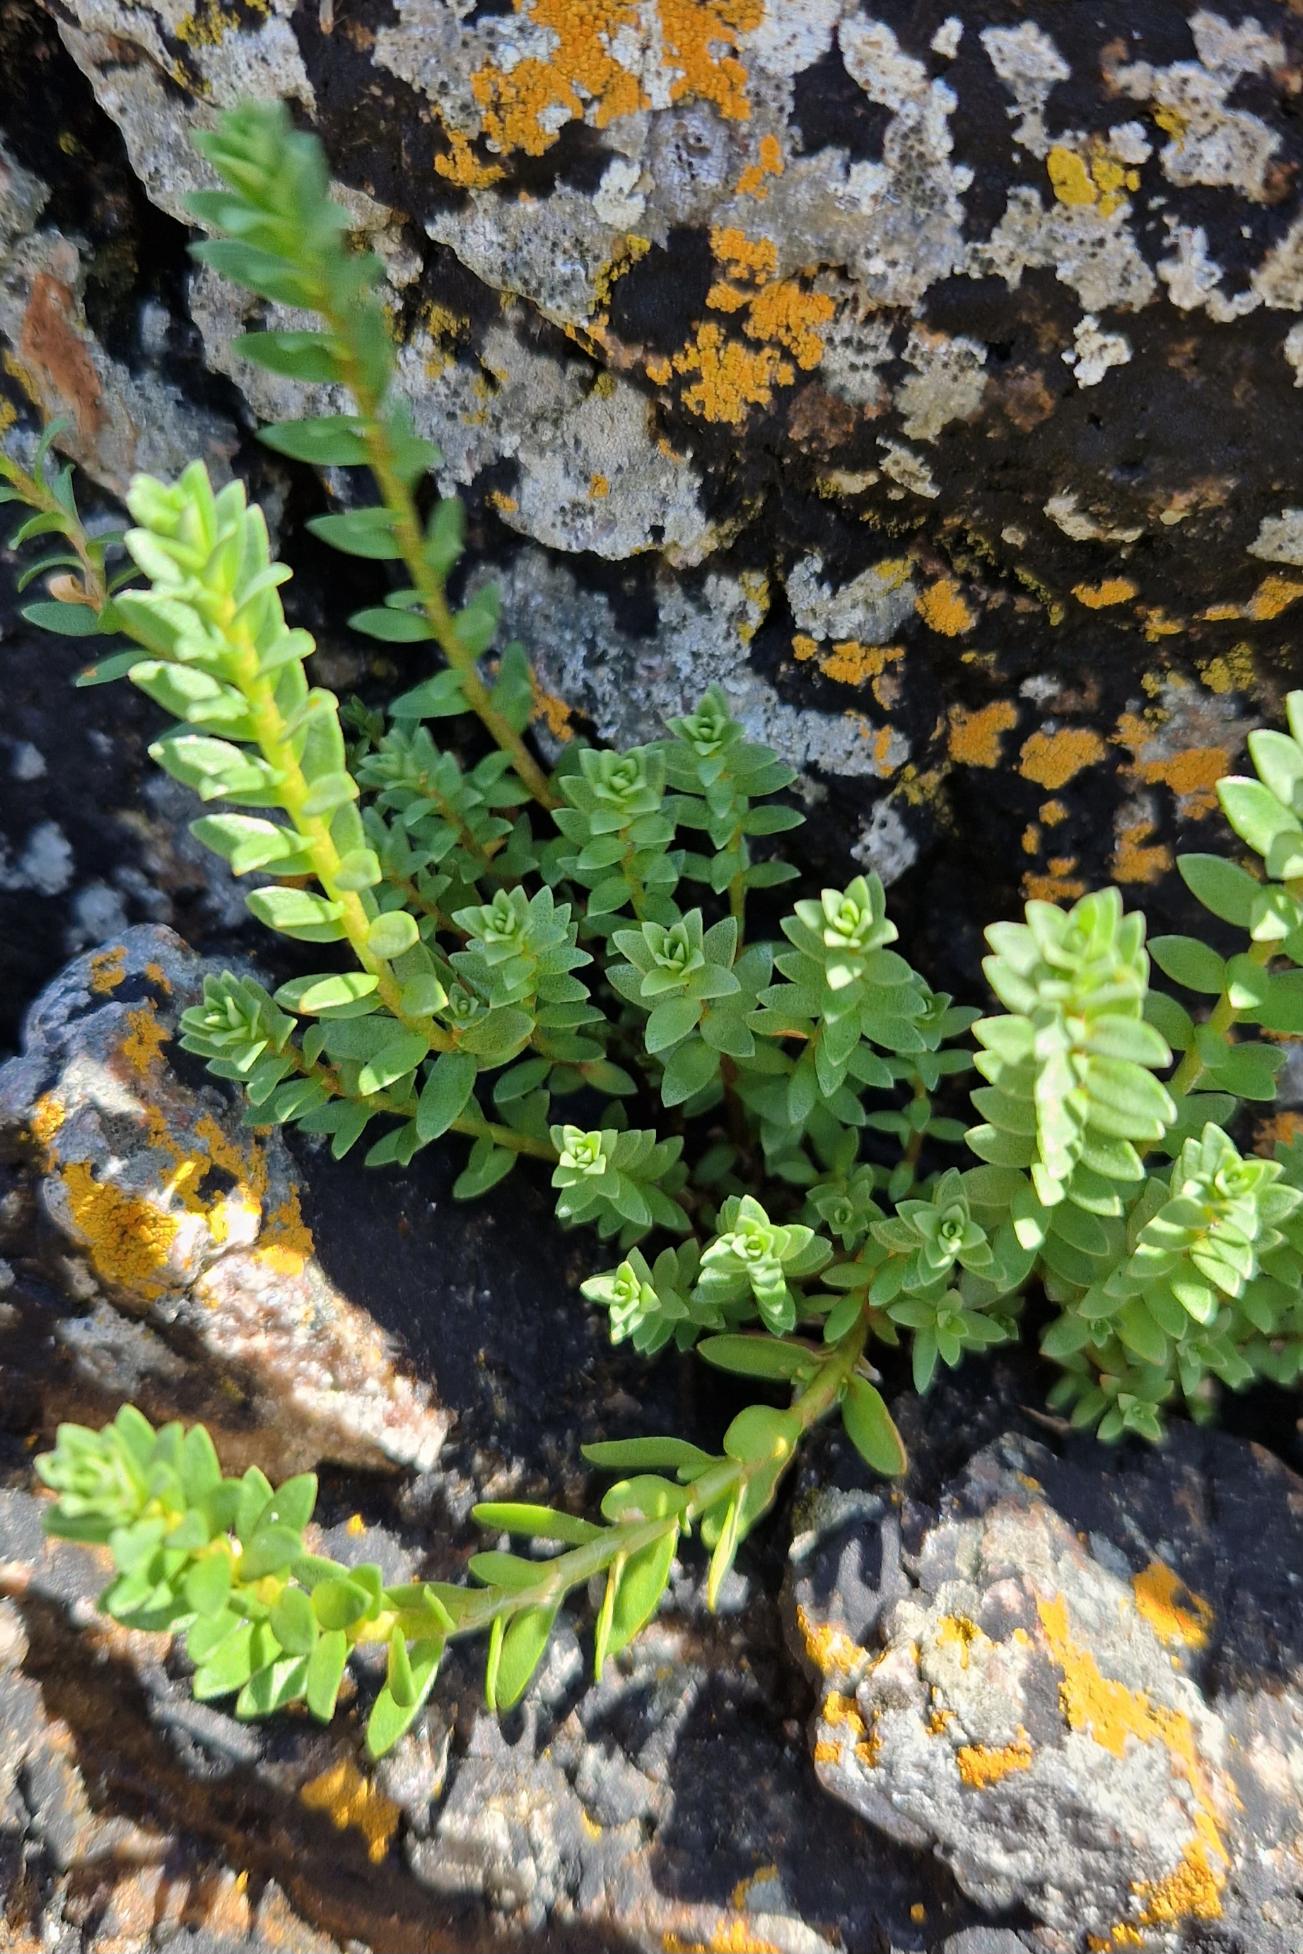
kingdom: Plantae
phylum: Tracheophyta
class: Magnoliopsida
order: Ericales
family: Primulaceae
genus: Lysimachia
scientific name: Lysimachia maritima
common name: Sandkryb
